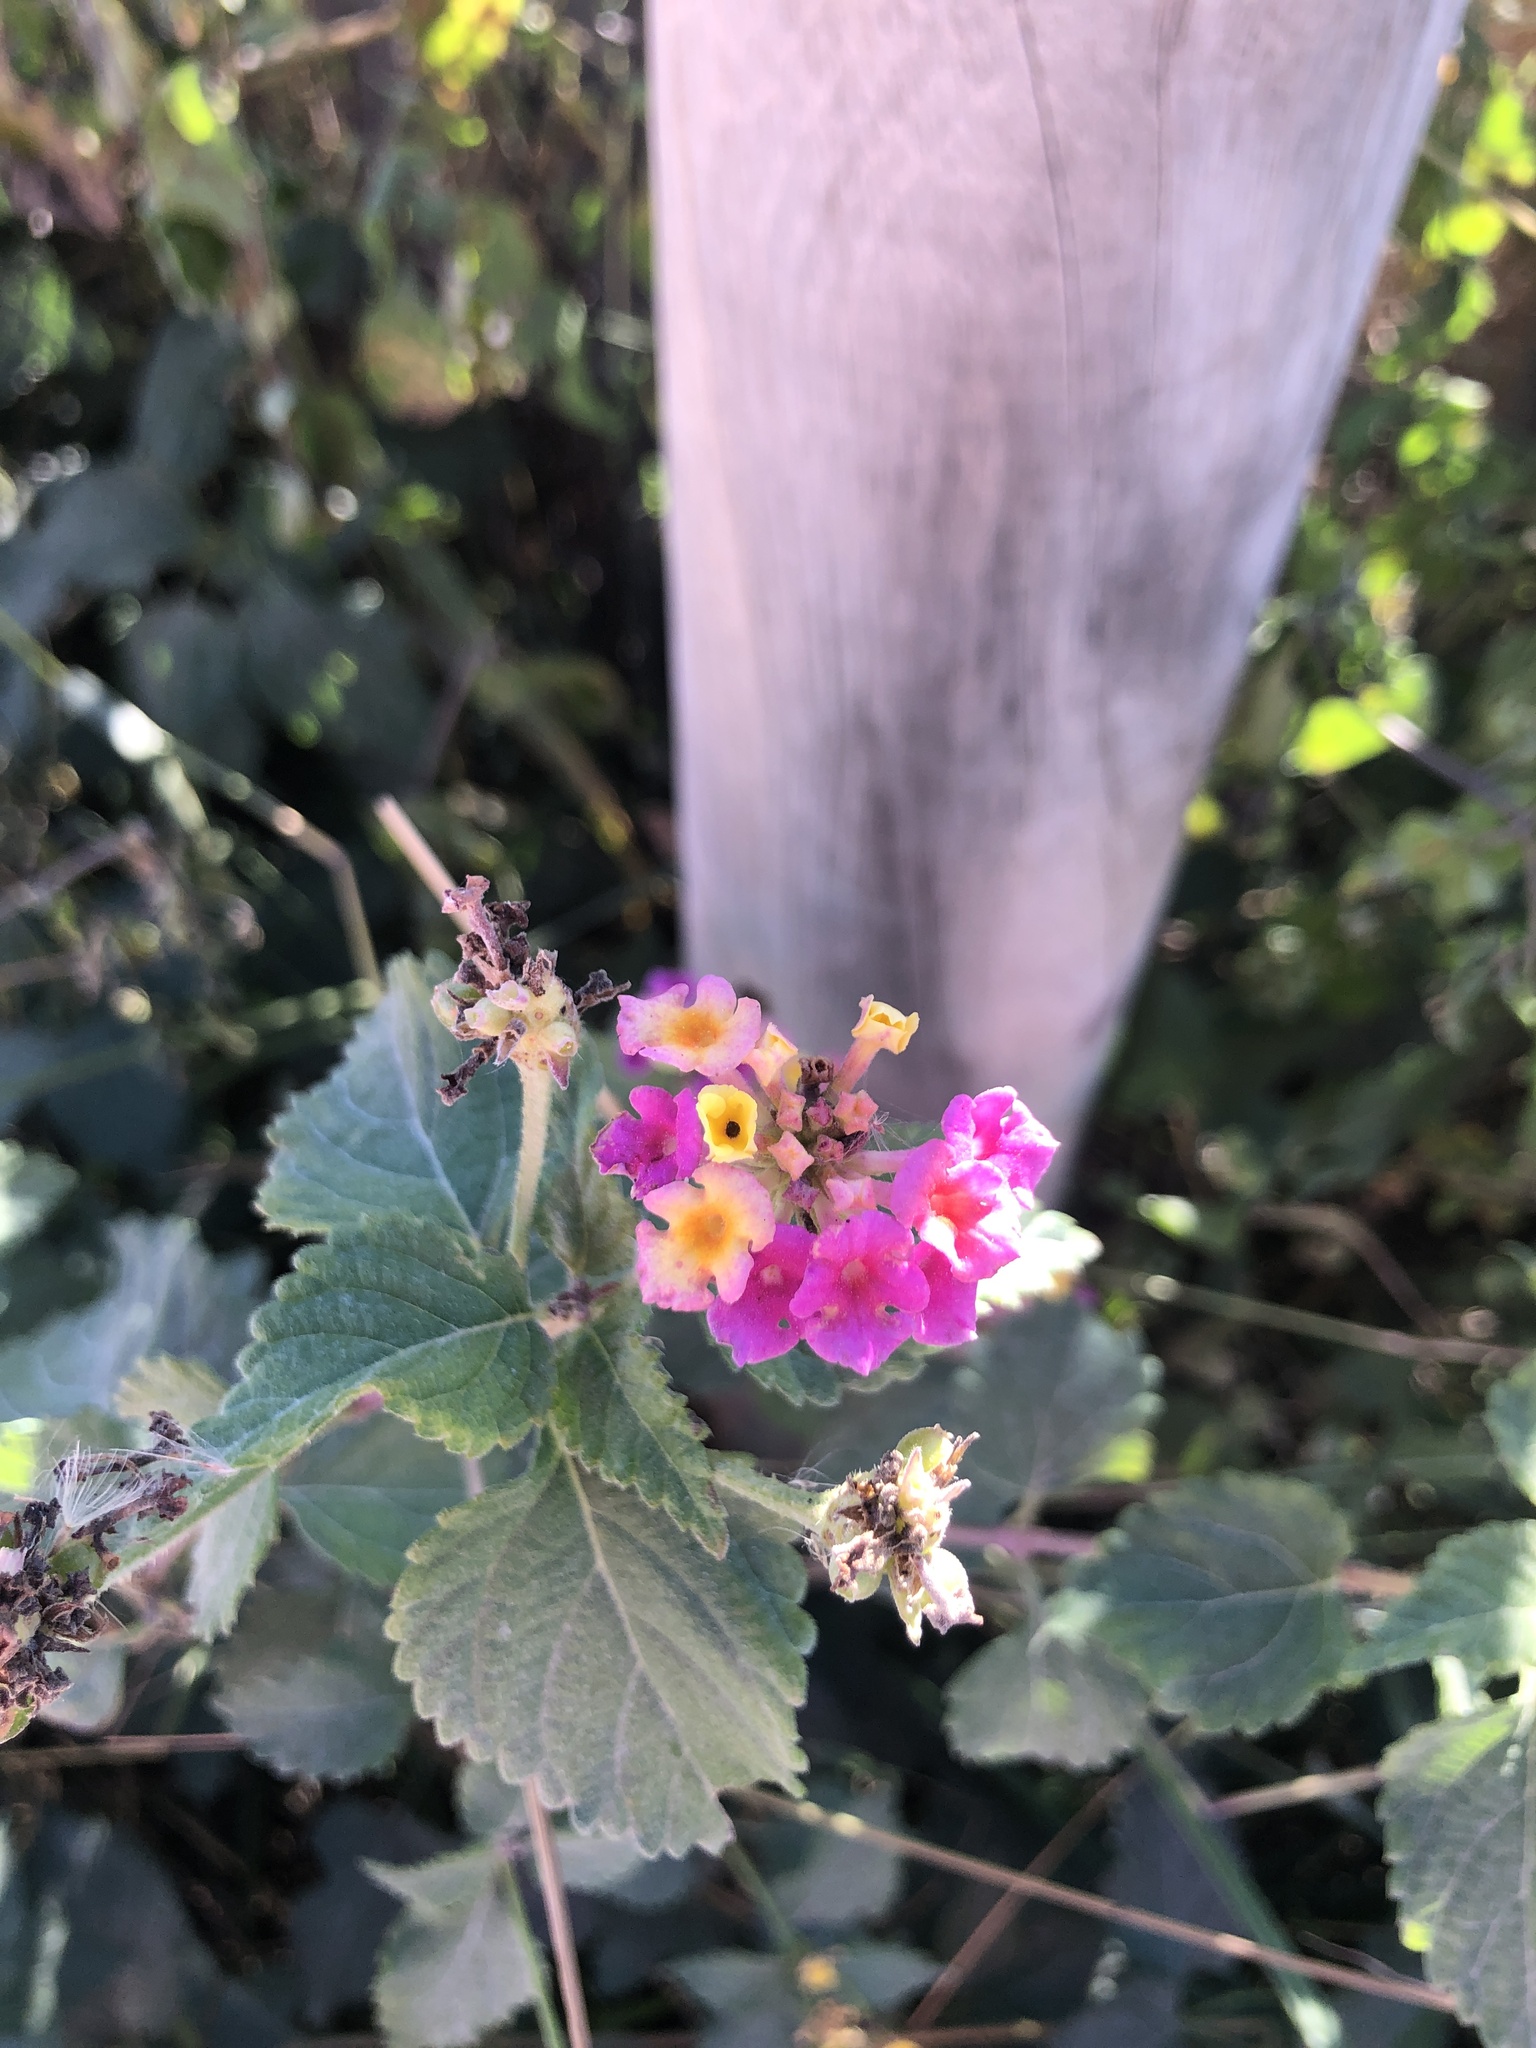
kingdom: Plantae
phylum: Tracheophyta
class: Magnoliopsida
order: Lamiales
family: Verbenaceae
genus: Lantana
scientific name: Lantana camara
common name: Lantana
